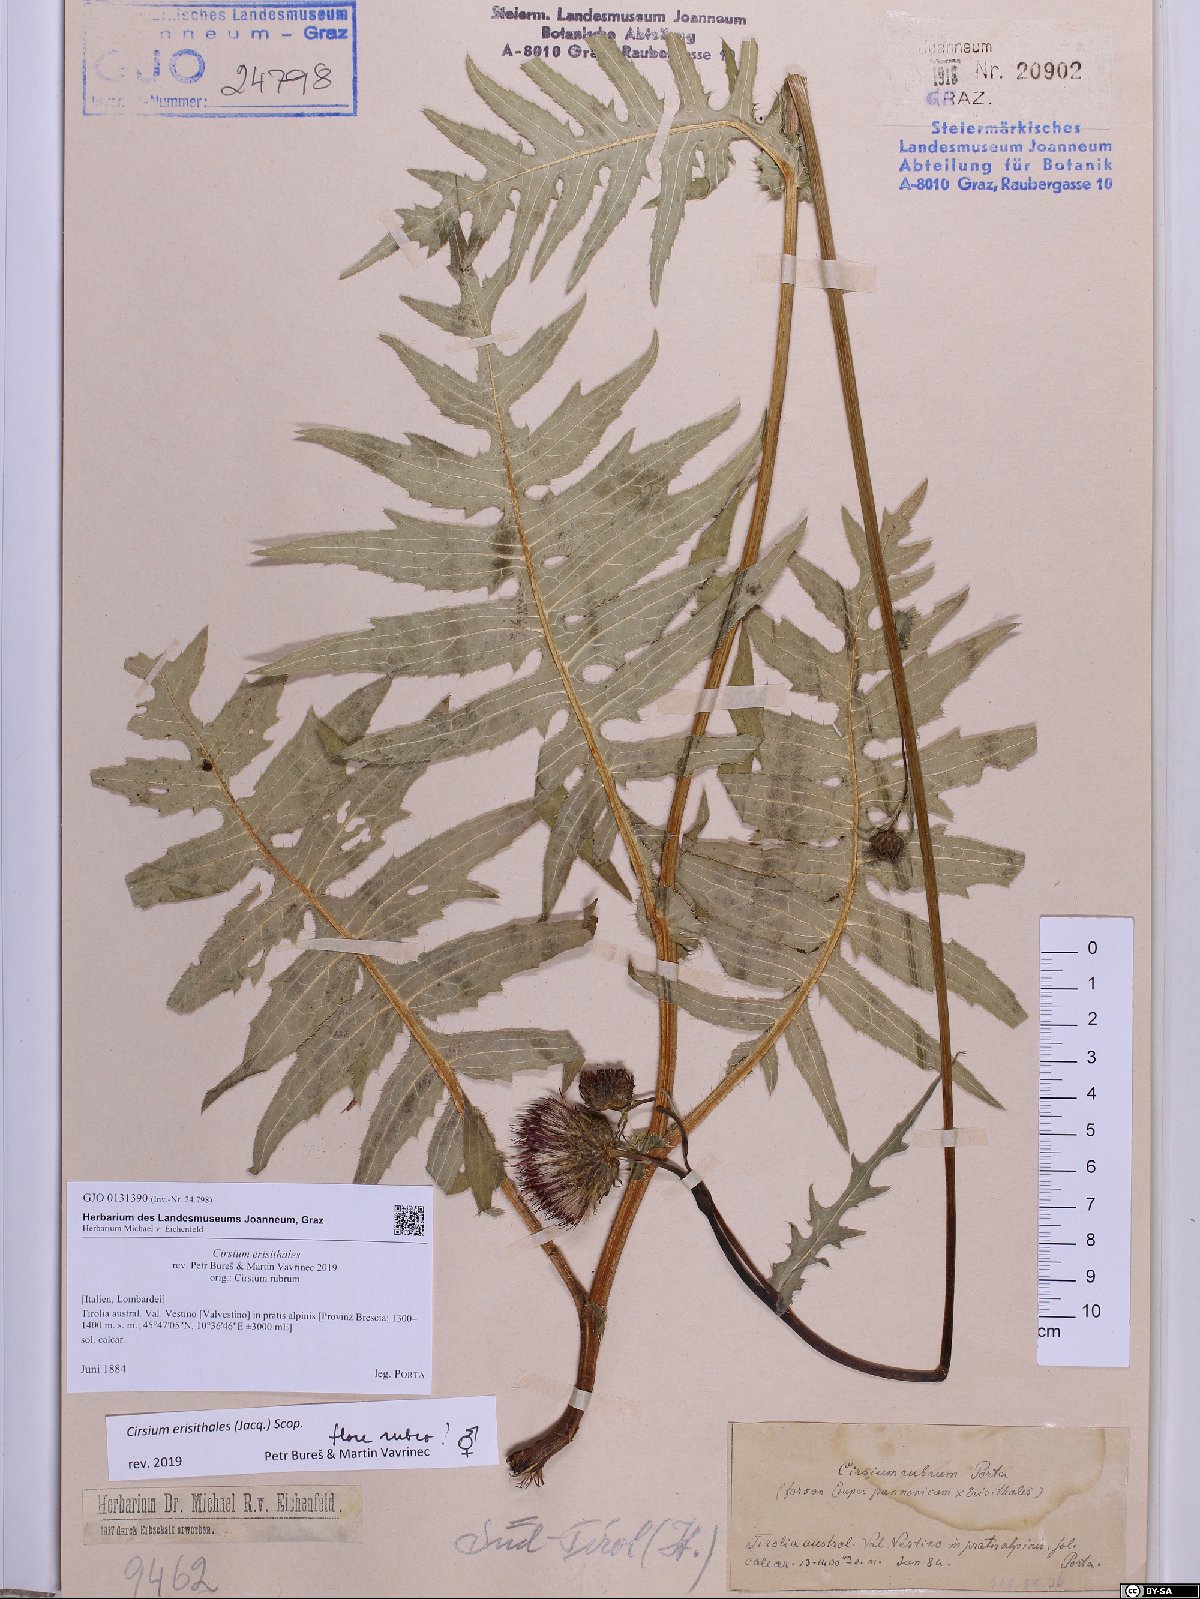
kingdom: Plantae
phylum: Tracheophyta
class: Magnoliopsida
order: Asterales
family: Asteraceae
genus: Cirsium
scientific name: Cirsium erisithales
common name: Yellow thistle
